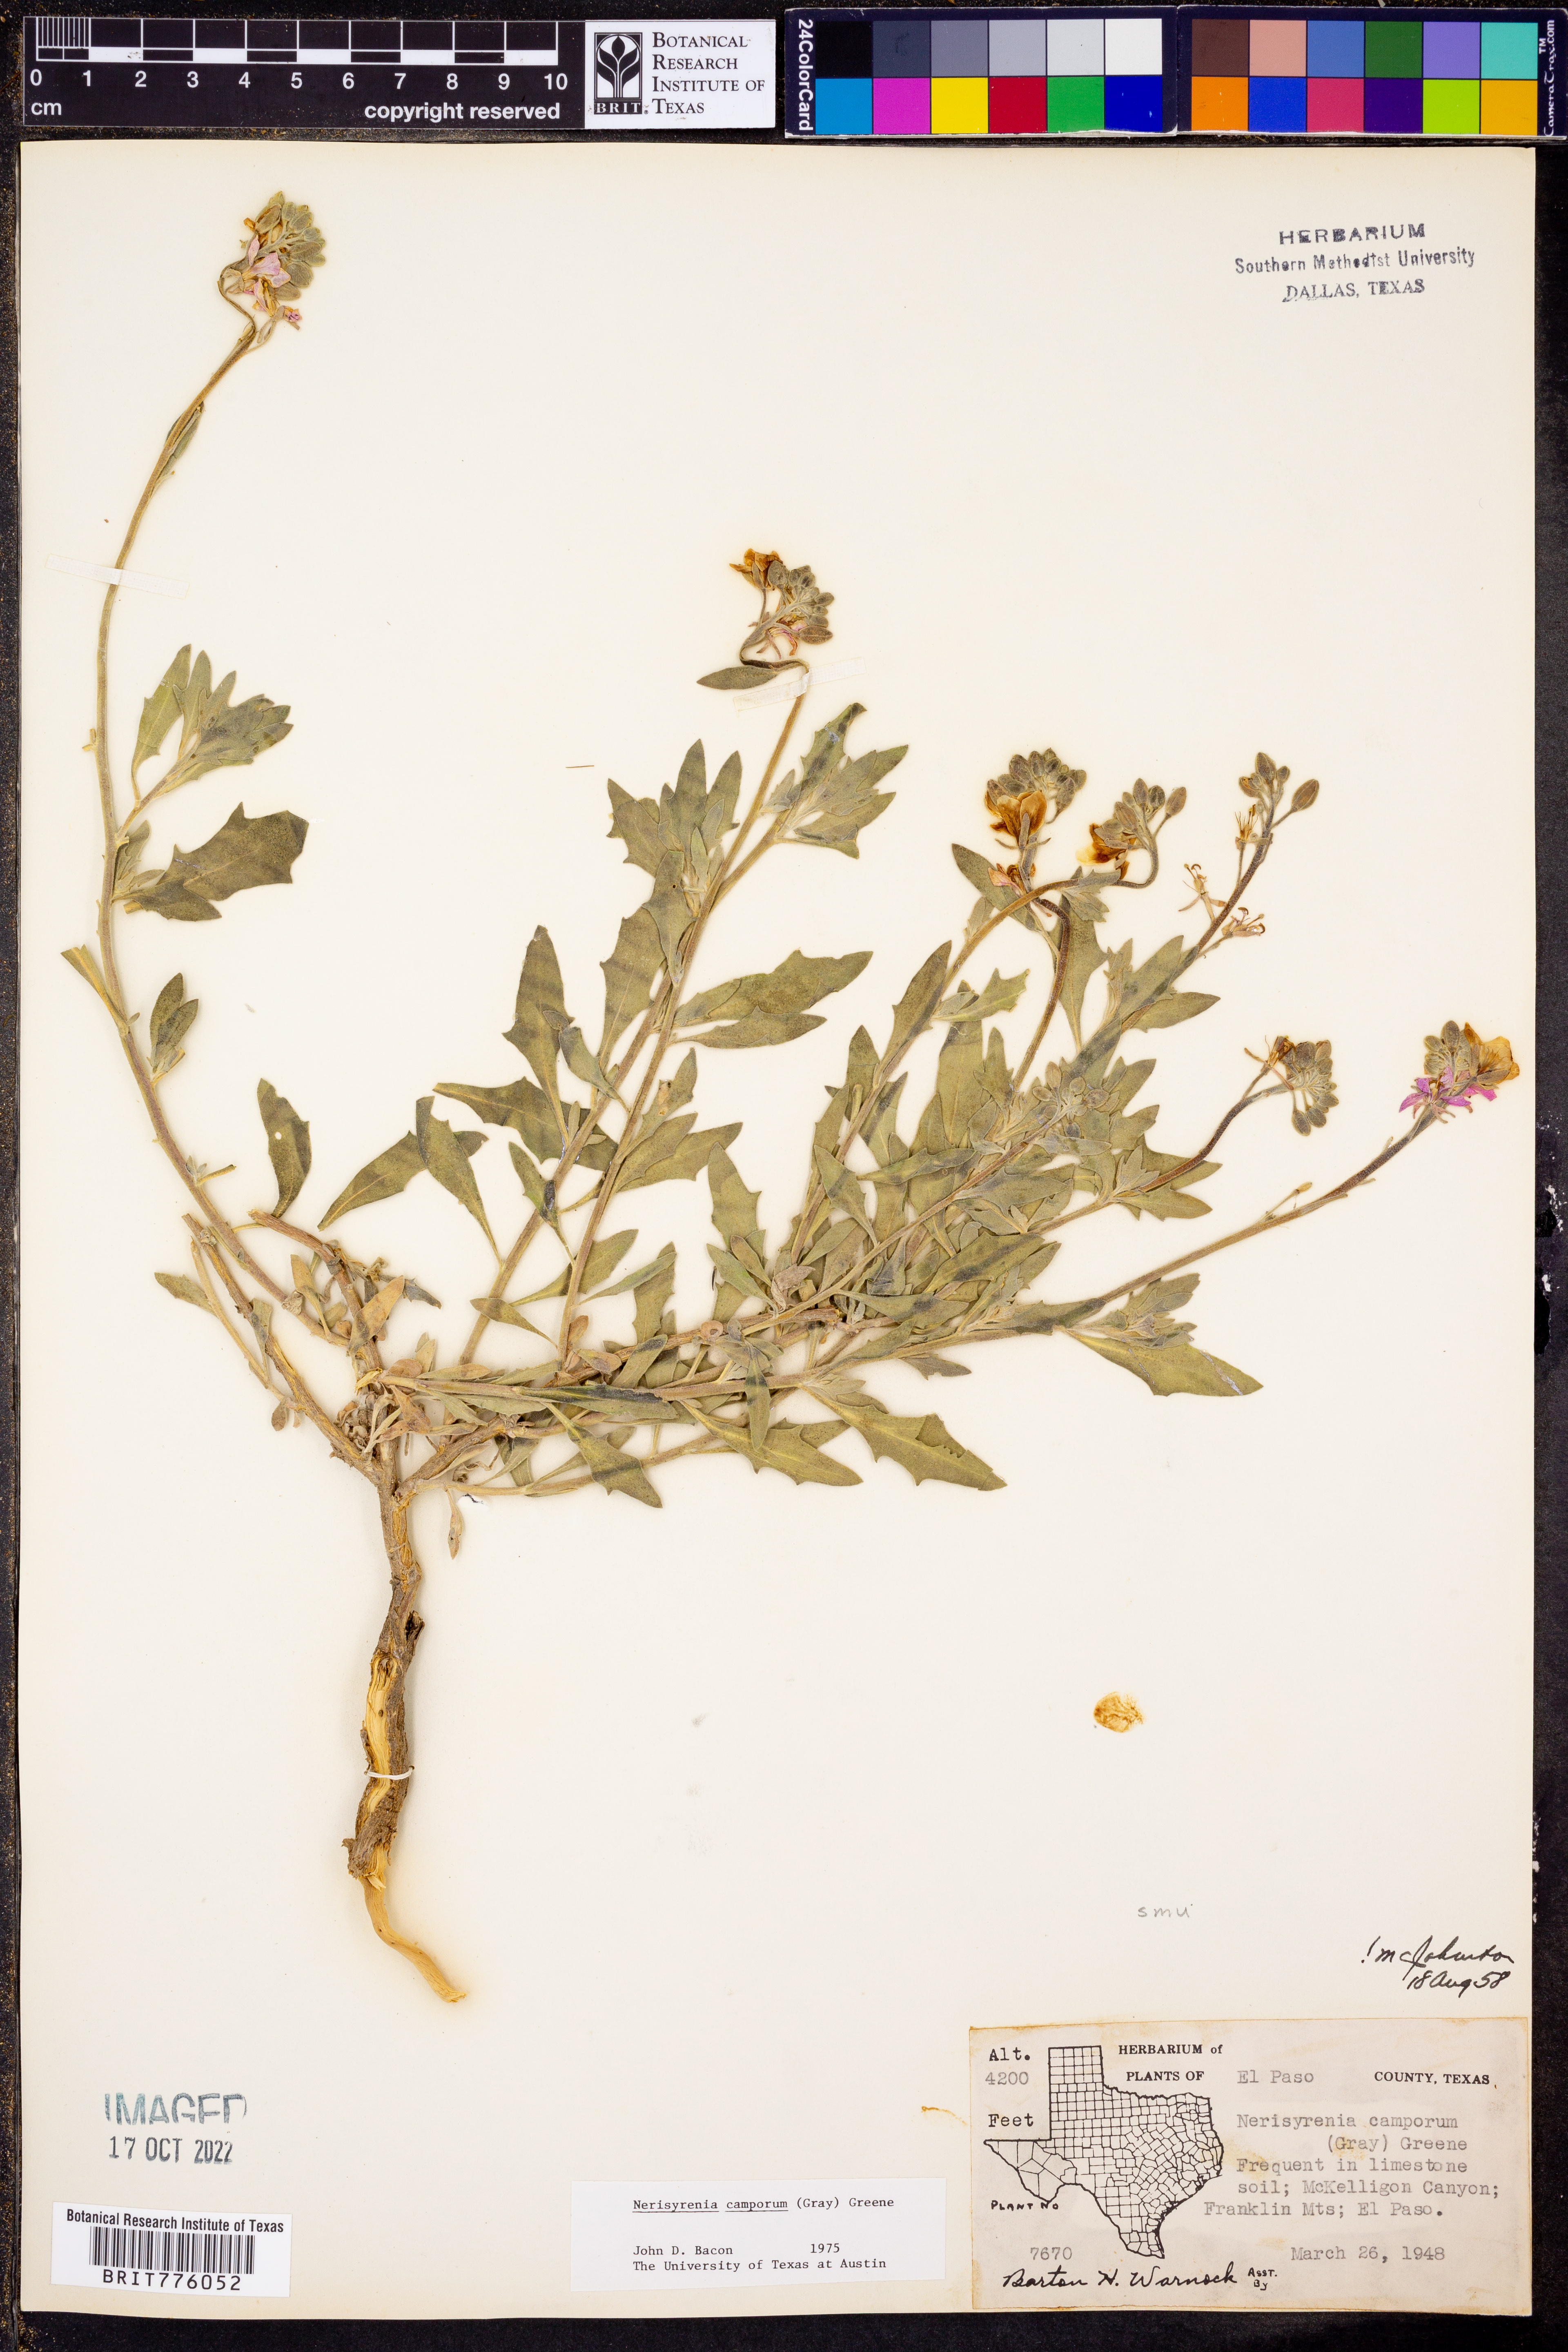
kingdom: Plantae
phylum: Tracheophyta
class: Magnoliopsida
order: Brassicales
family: Brassicaceae
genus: Nerisyrenia
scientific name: Nerisyrenia camporum
